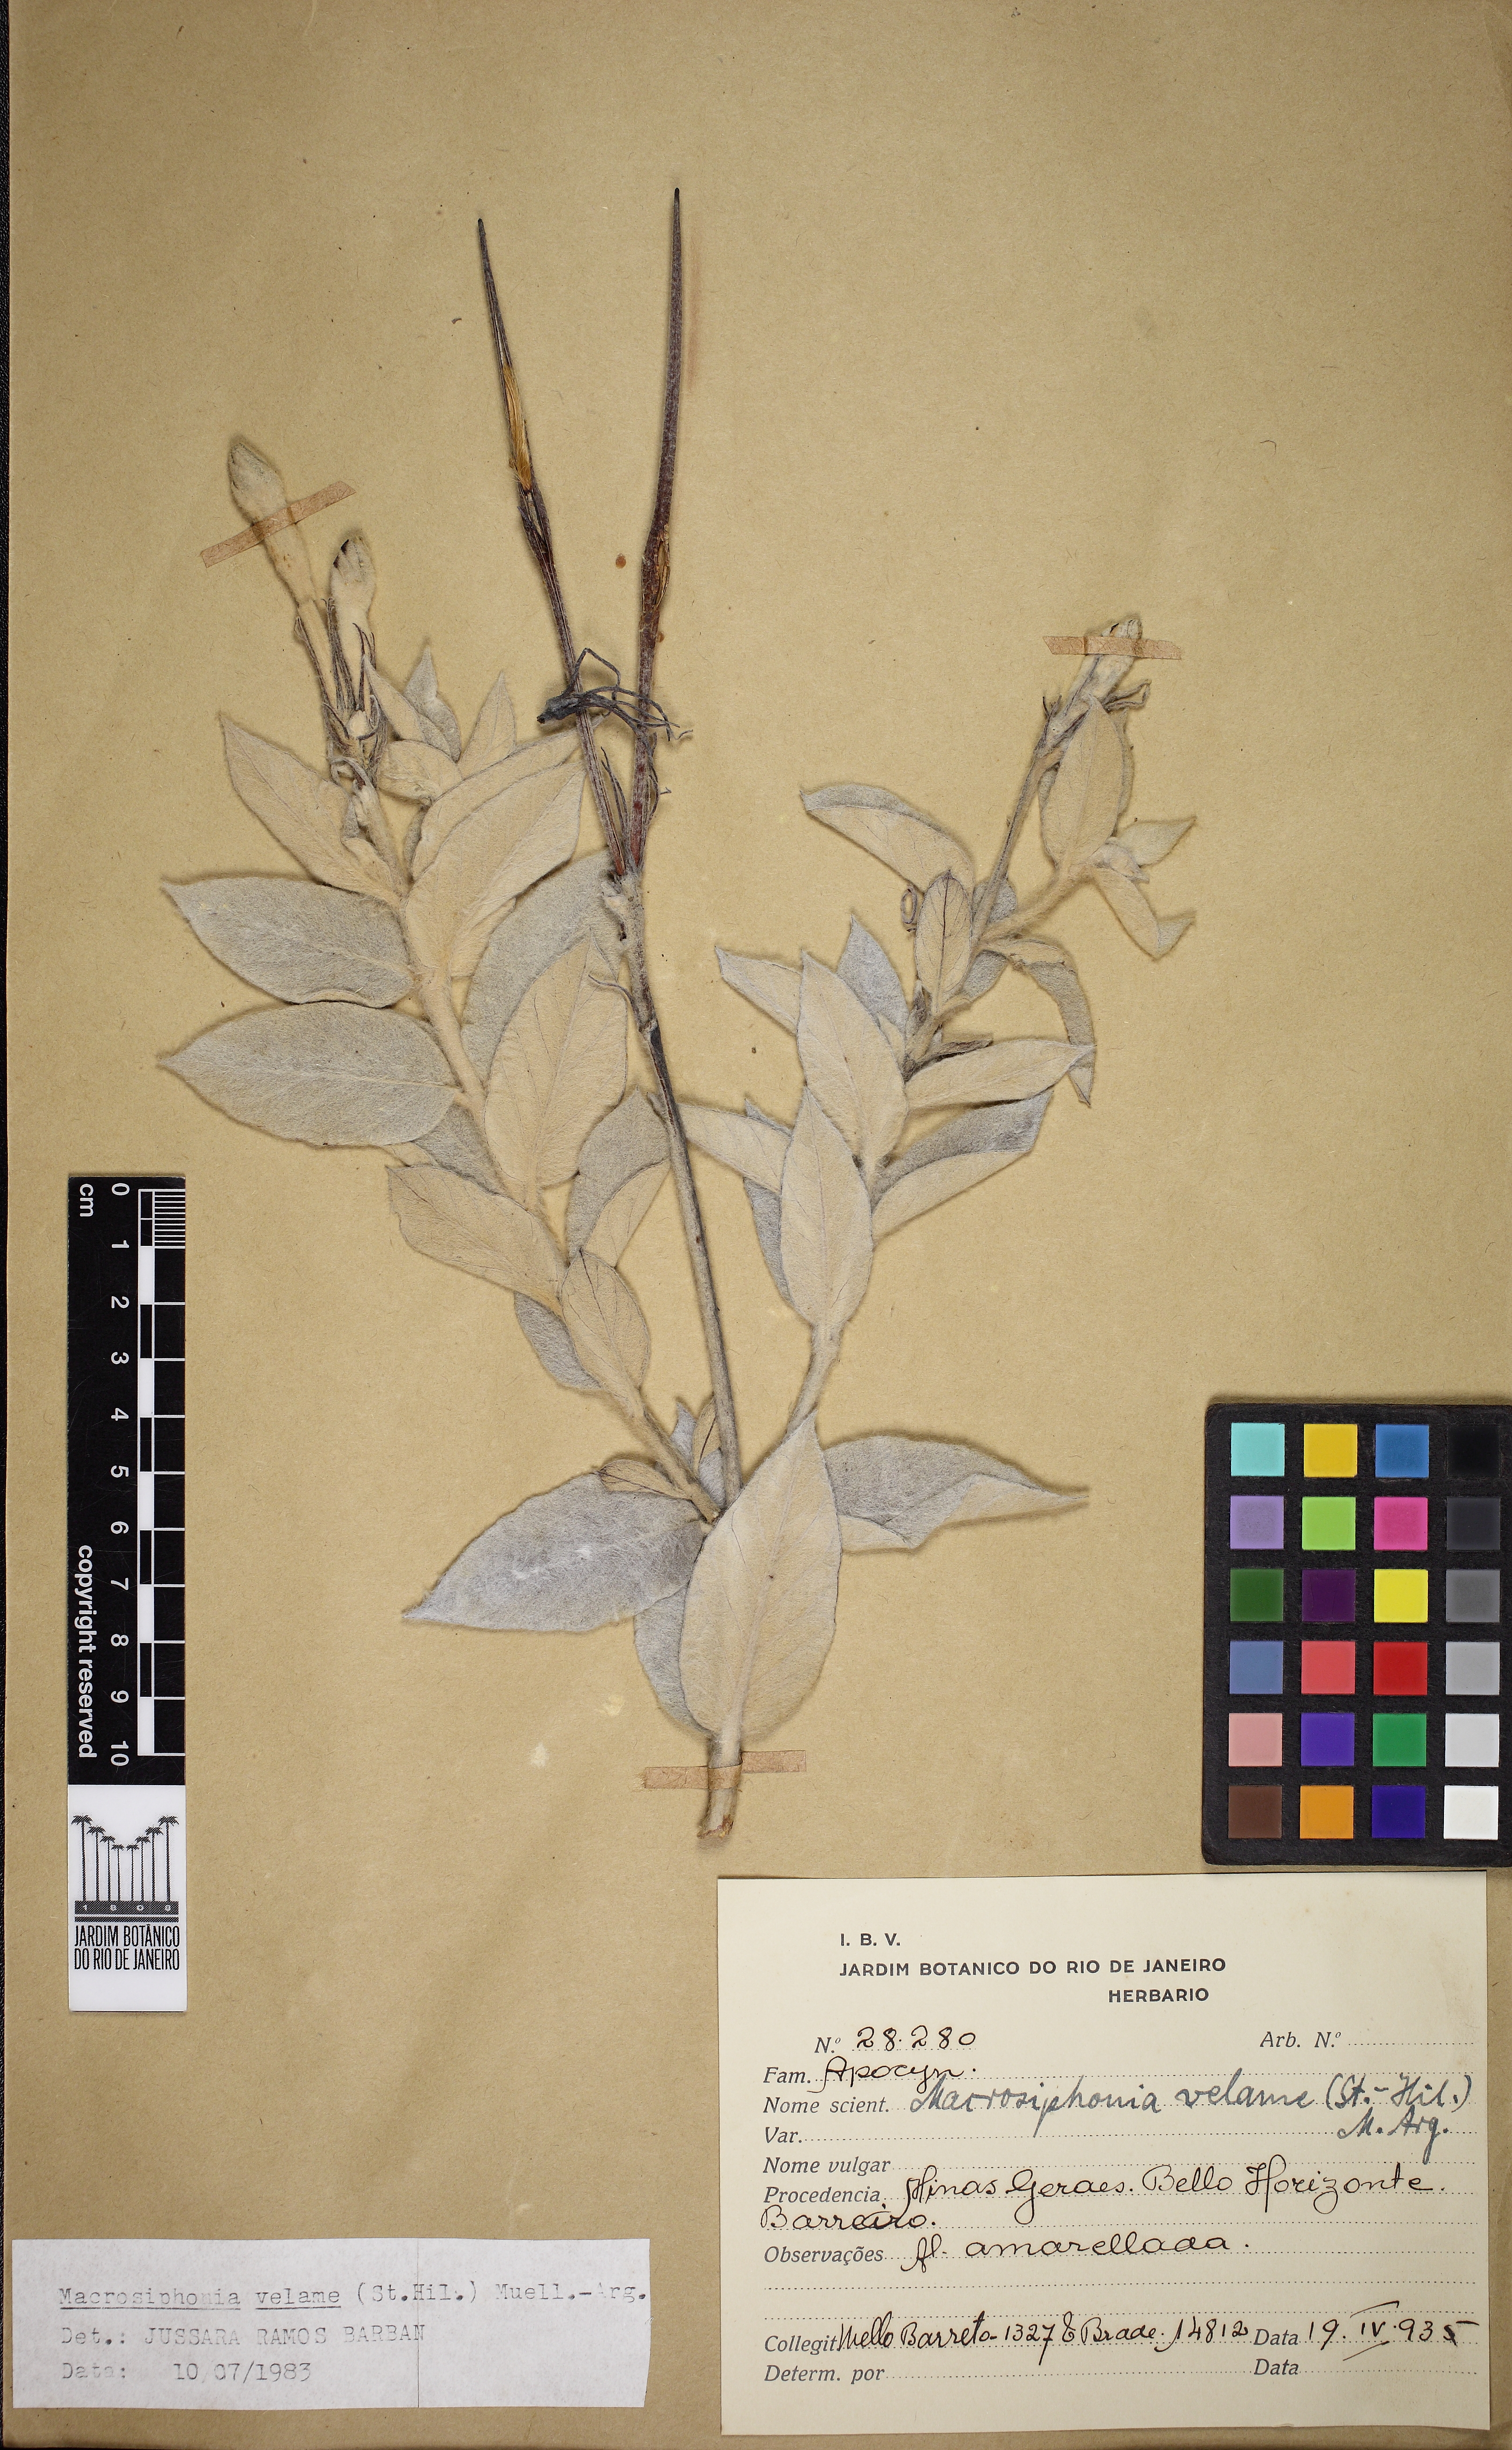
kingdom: Plantae
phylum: Tracheophyta
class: Magnoliopsida
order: Gentianales
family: Apocynaceae
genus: Mandevilla
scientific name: Mandevilla velame
